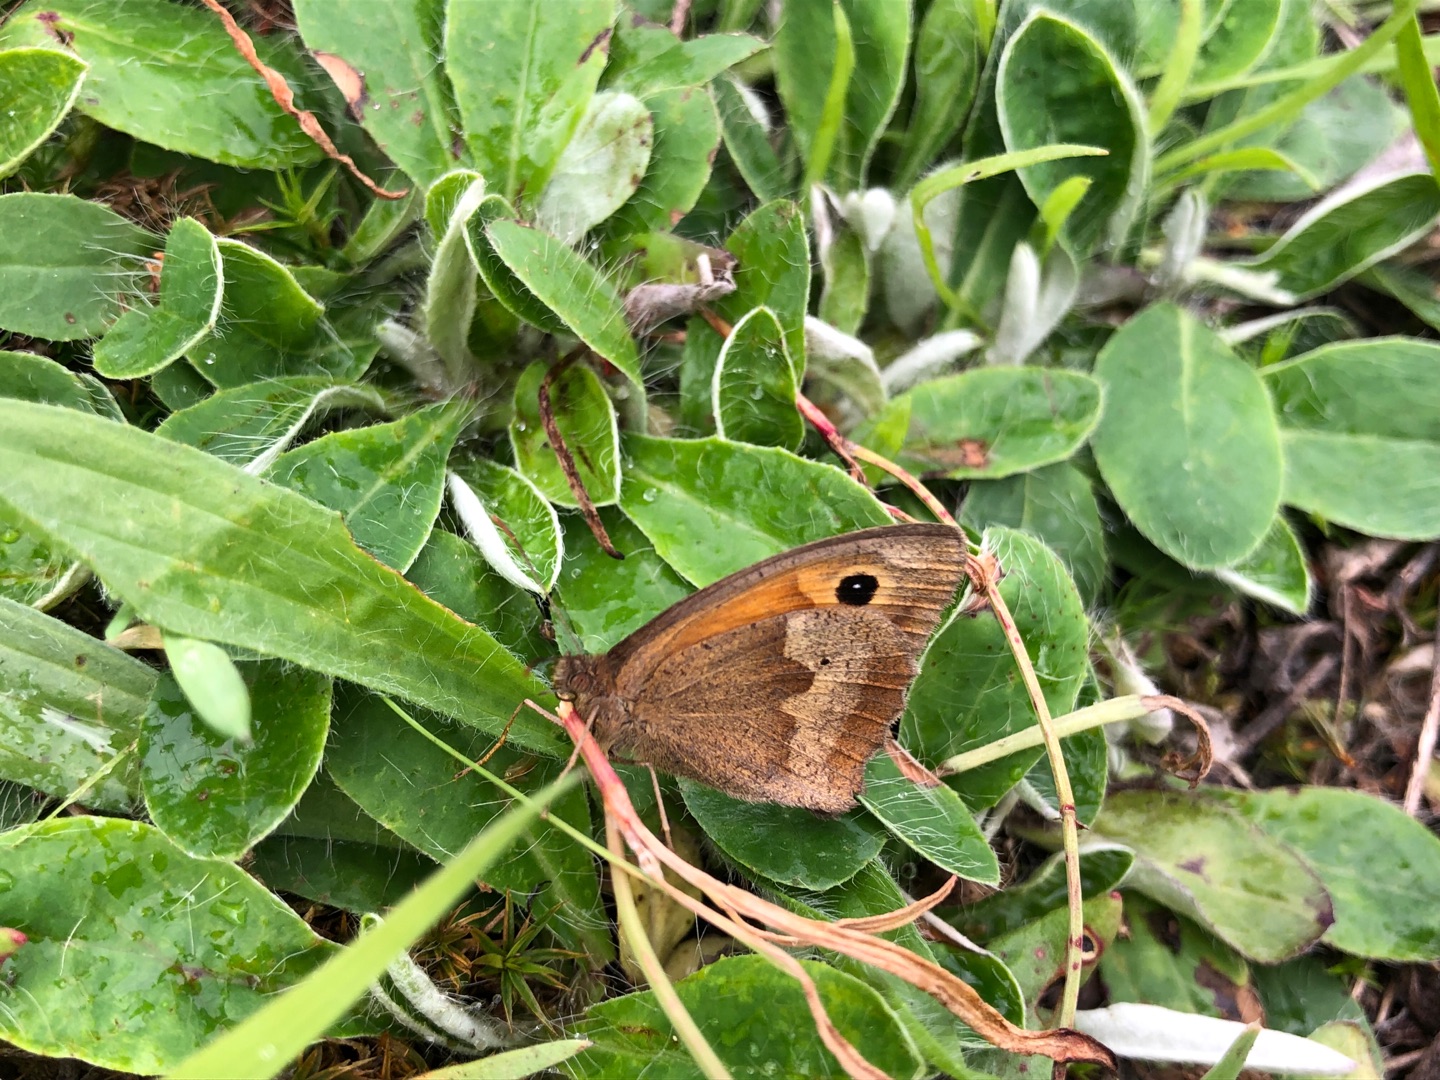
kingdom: Animalia
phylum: Arthropoda
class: Insecta
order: Lepidoptera
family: Nymphalidae
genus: Maniola
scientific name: Maniola jurtina
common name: Græsrandøje
